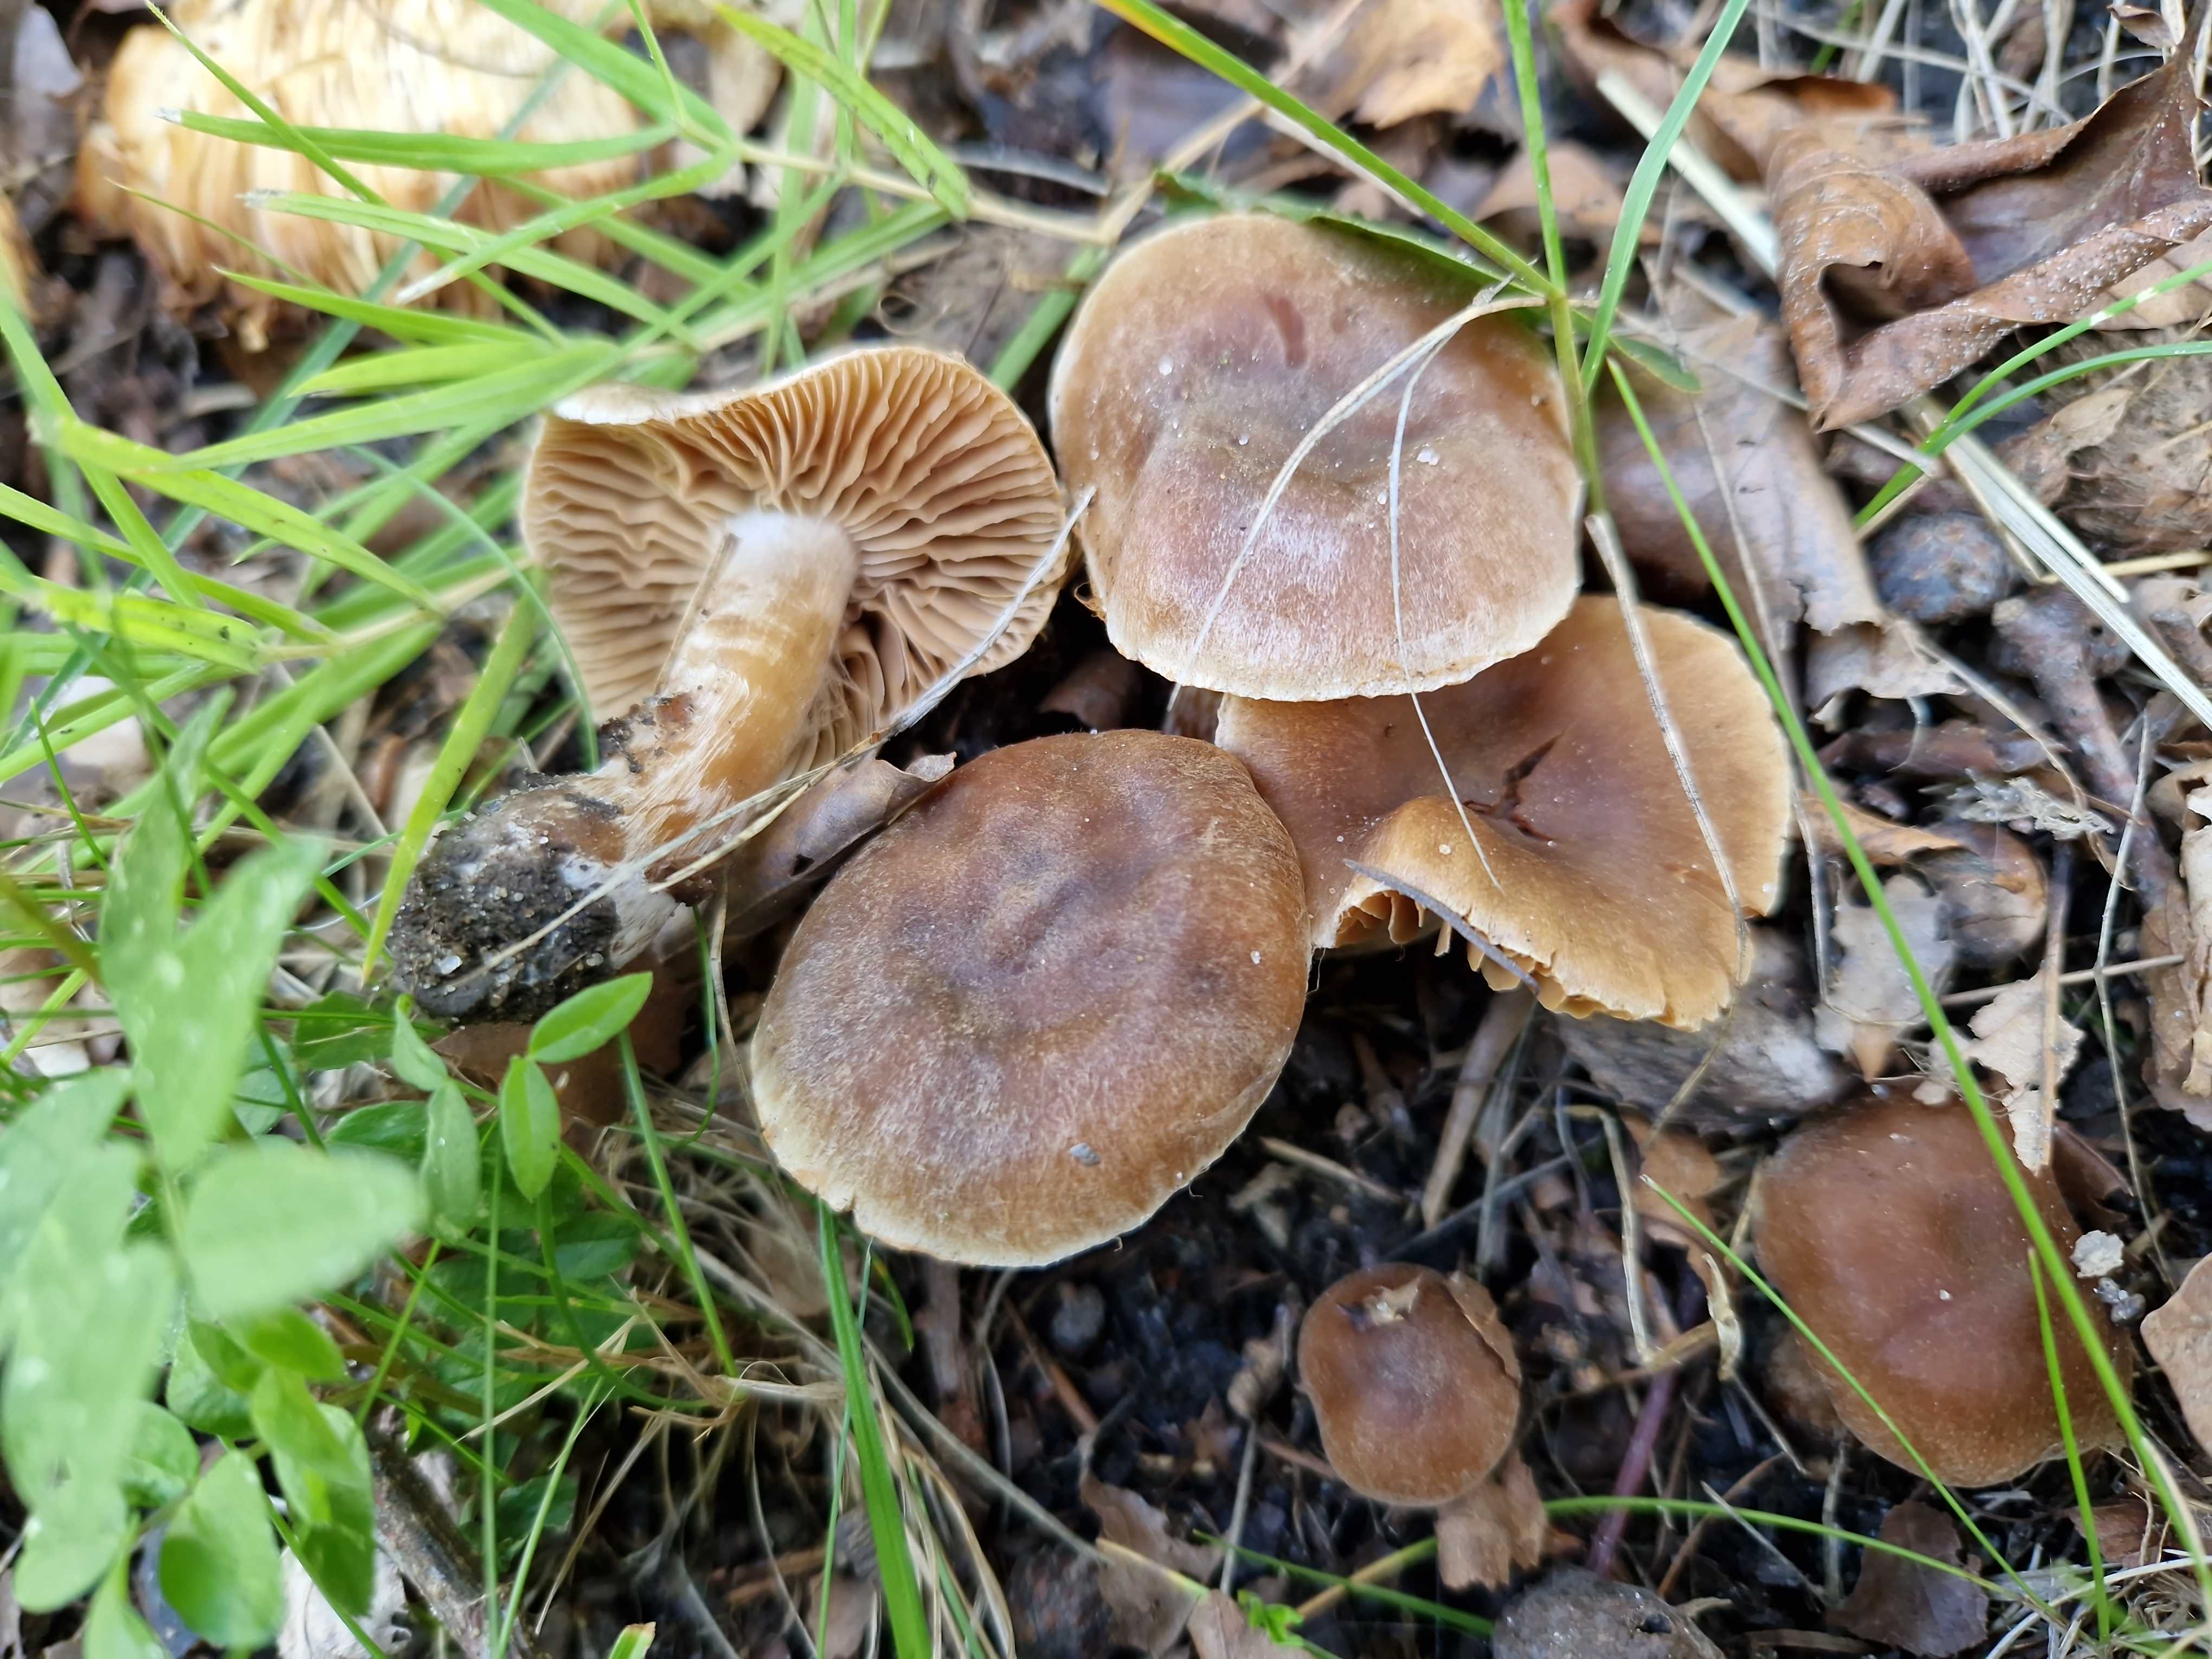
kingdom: Fungi
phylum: Basidiomycota
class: Agaricomycetes
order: Agaricales
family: Cortinariaceae
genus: Cortinarius
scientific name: Cortinarius epipurrus
